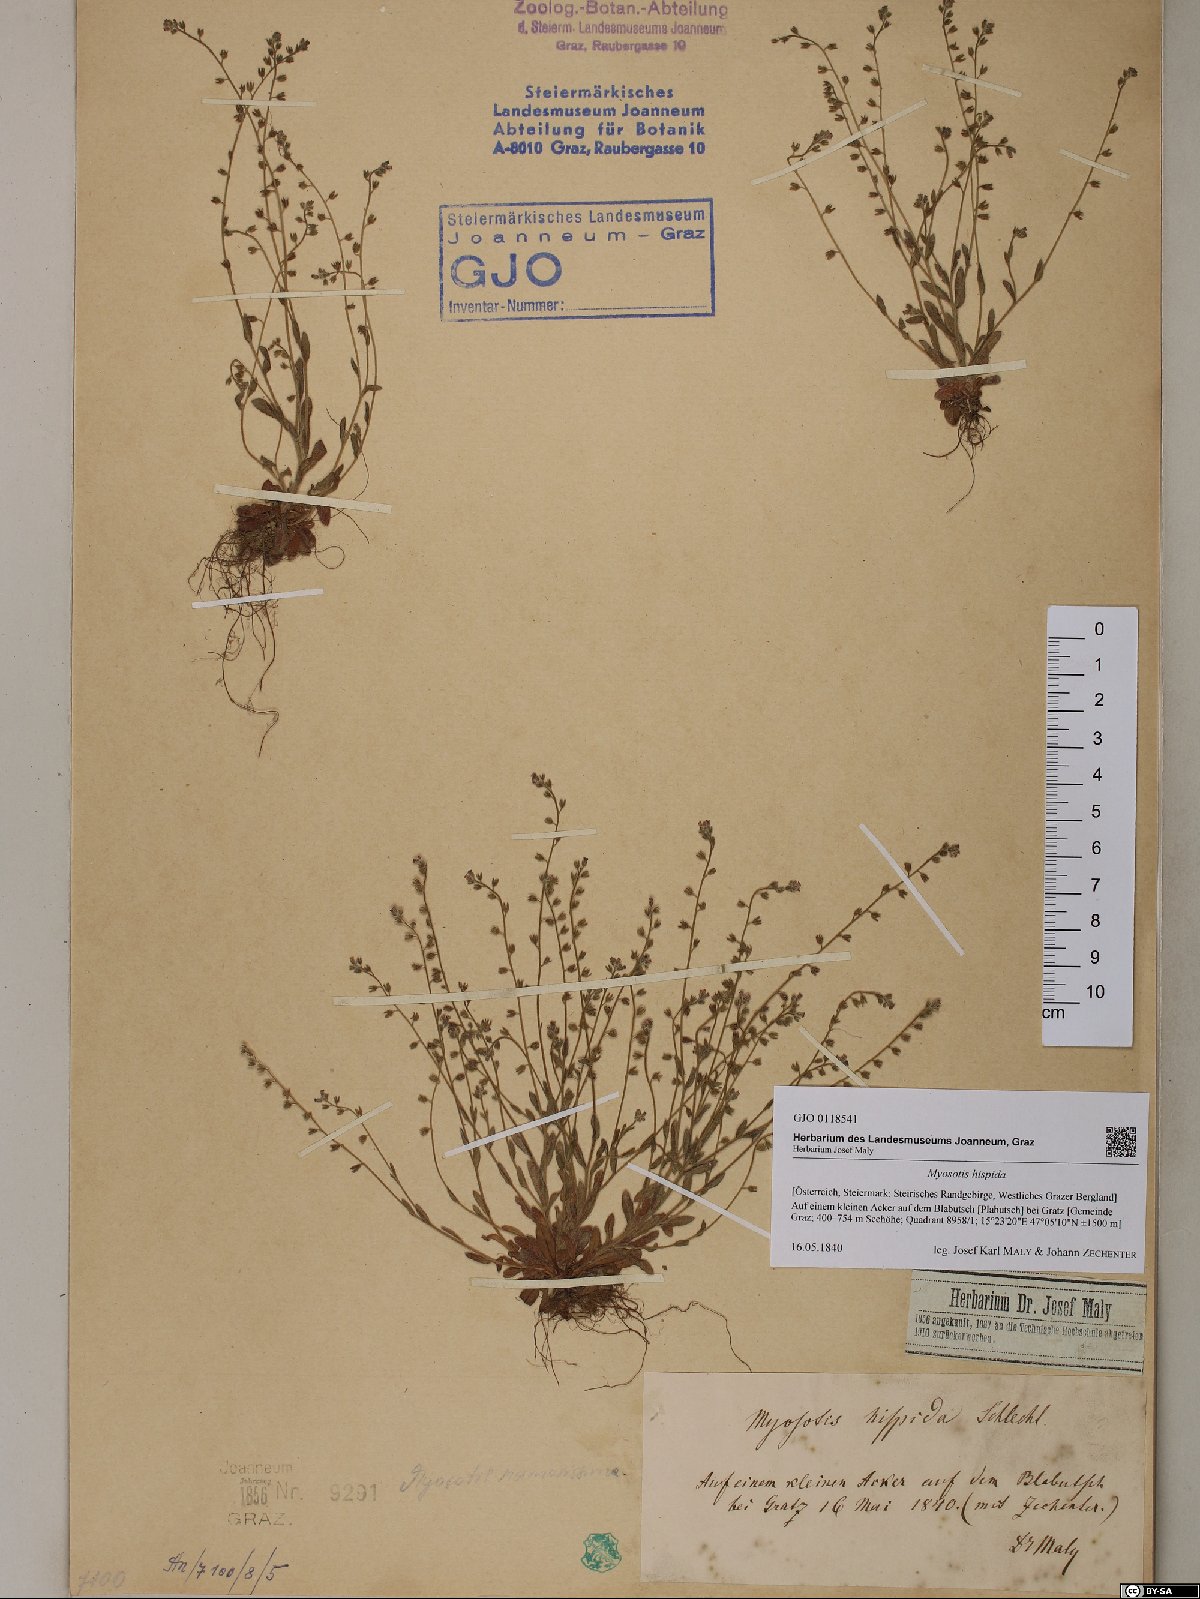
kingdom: Plantae
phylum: Tracheophyta
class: Magnoliopsida
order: Boraginales
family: Boraginaceae
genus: Myosotis
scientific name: Myosotis ramosissima
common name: Early forget-me-not
